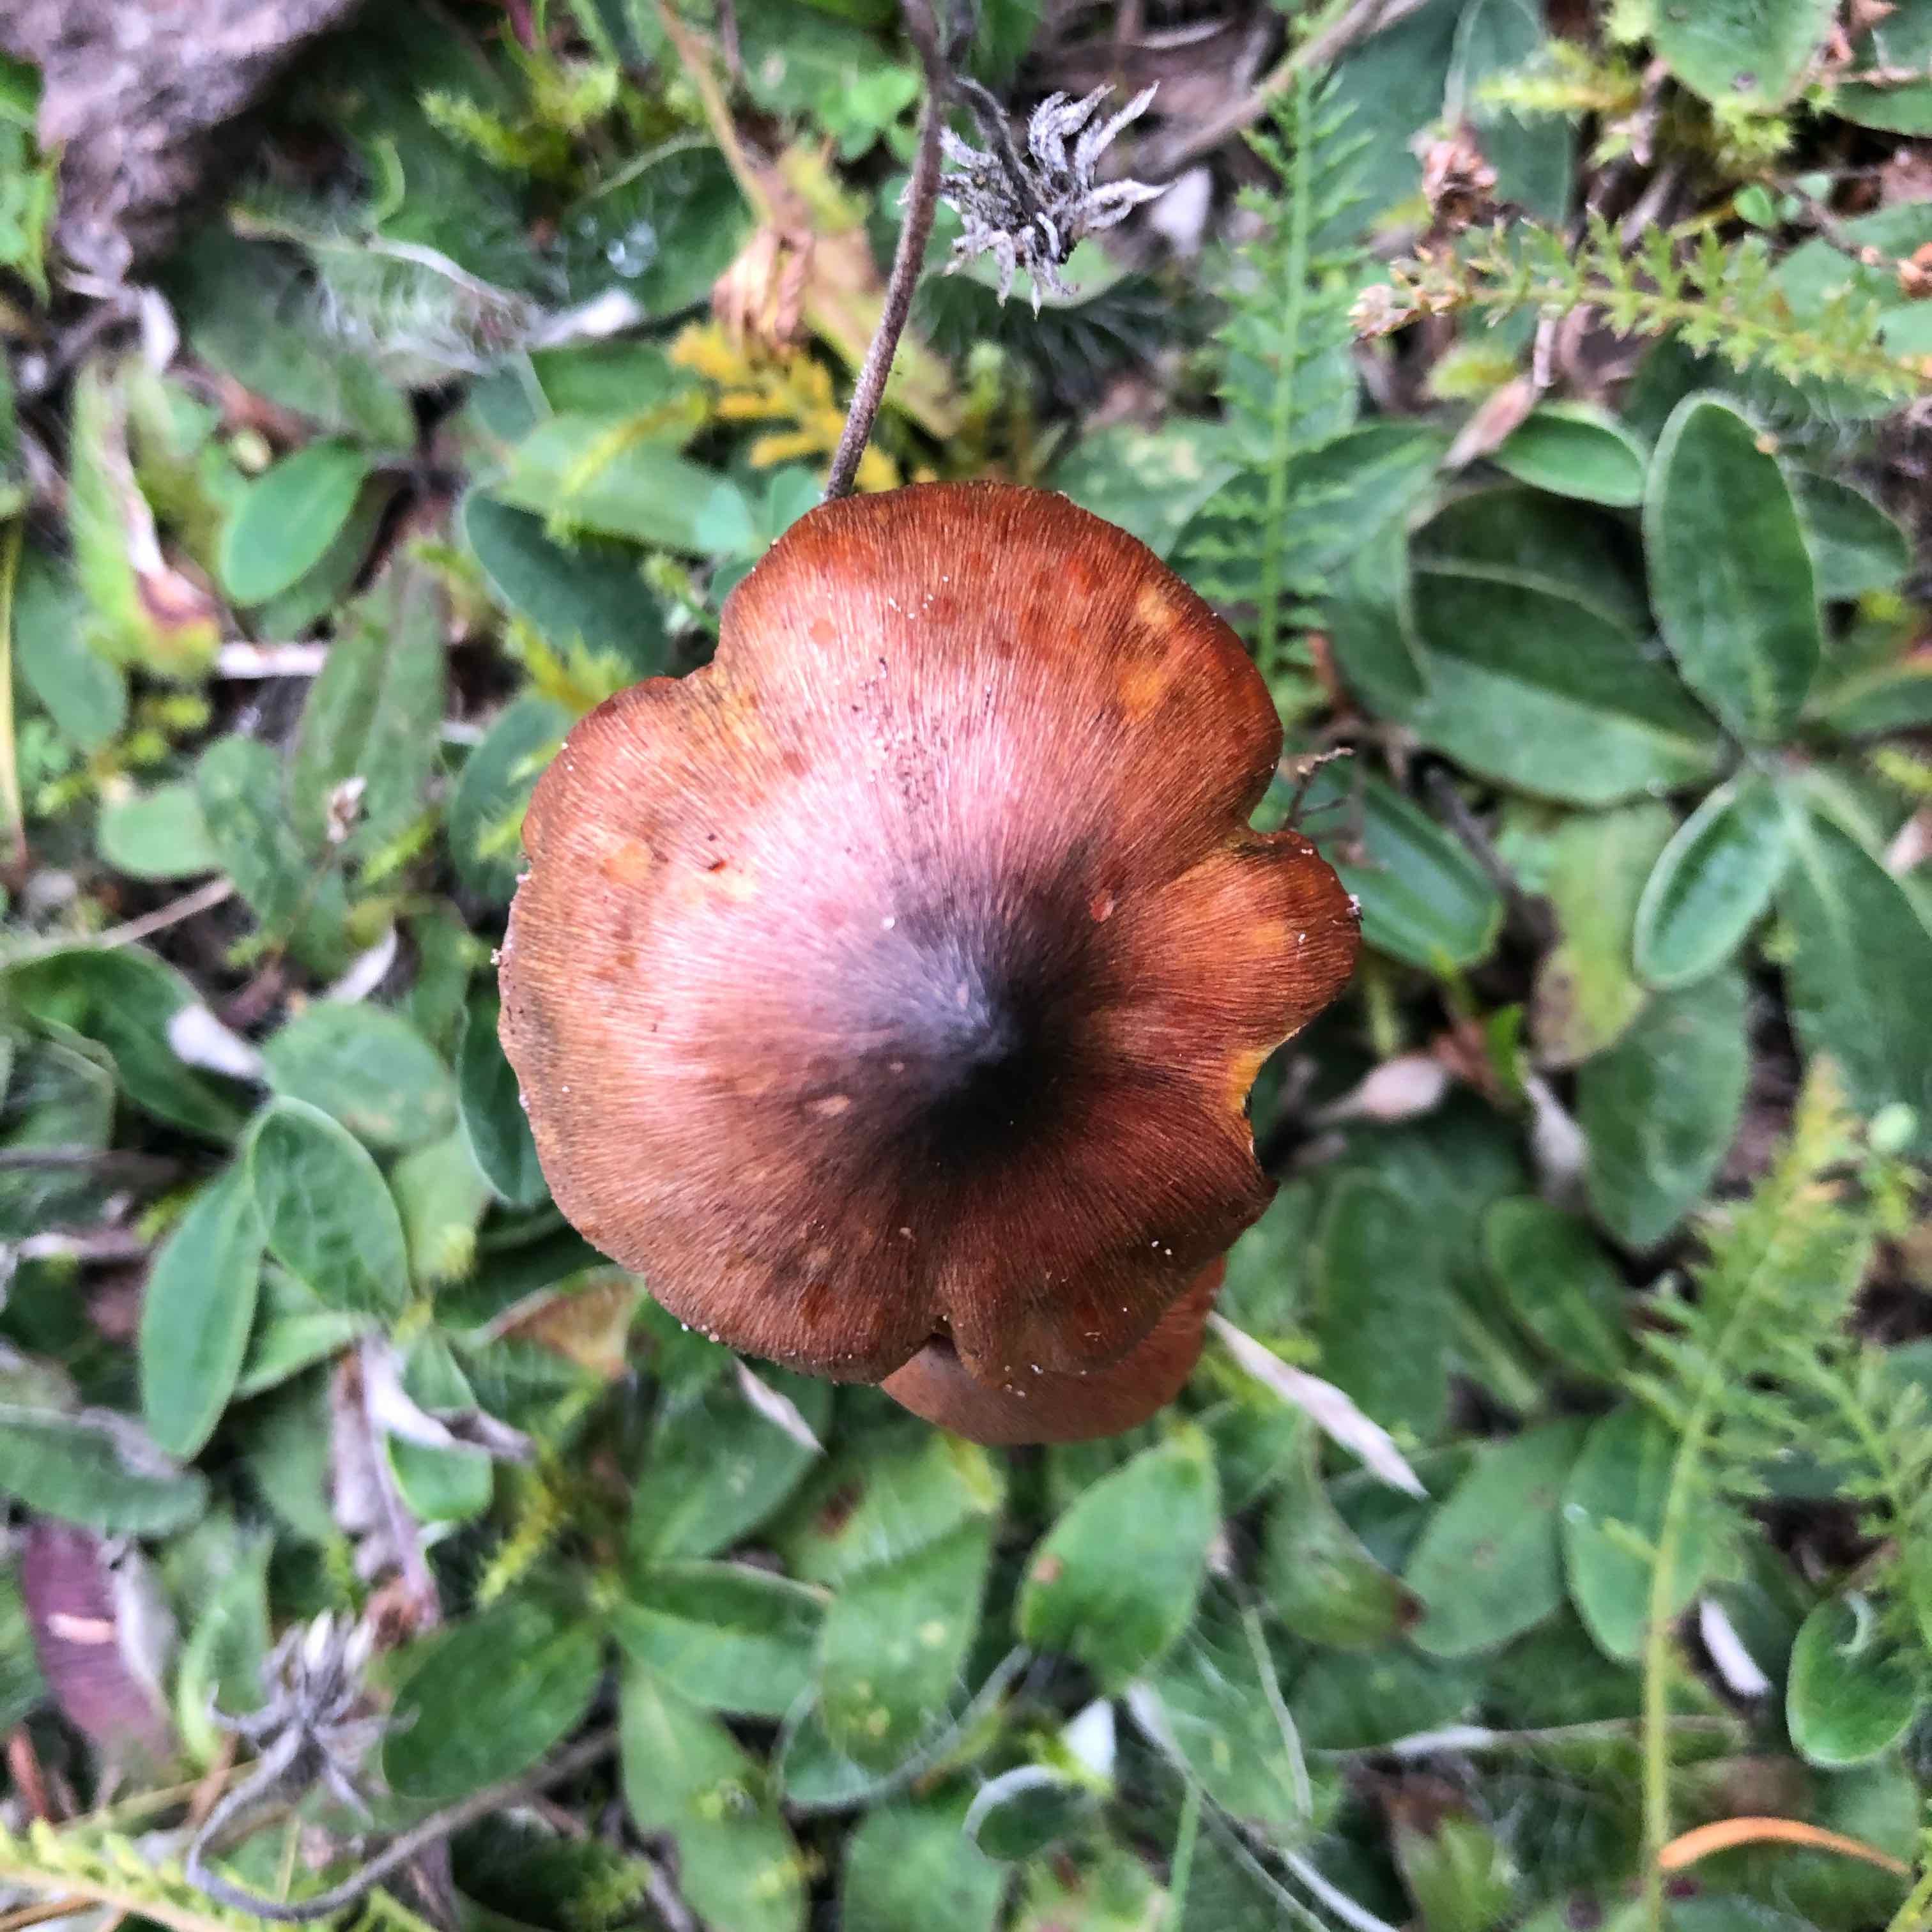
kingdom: Fungi
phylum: Basidiomycota
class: Agaricomycetes
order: Agaricales
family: Hygrophoraceae
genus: Hygrocybe
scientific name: Hygrocybe conica
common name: kegle-vokshat
